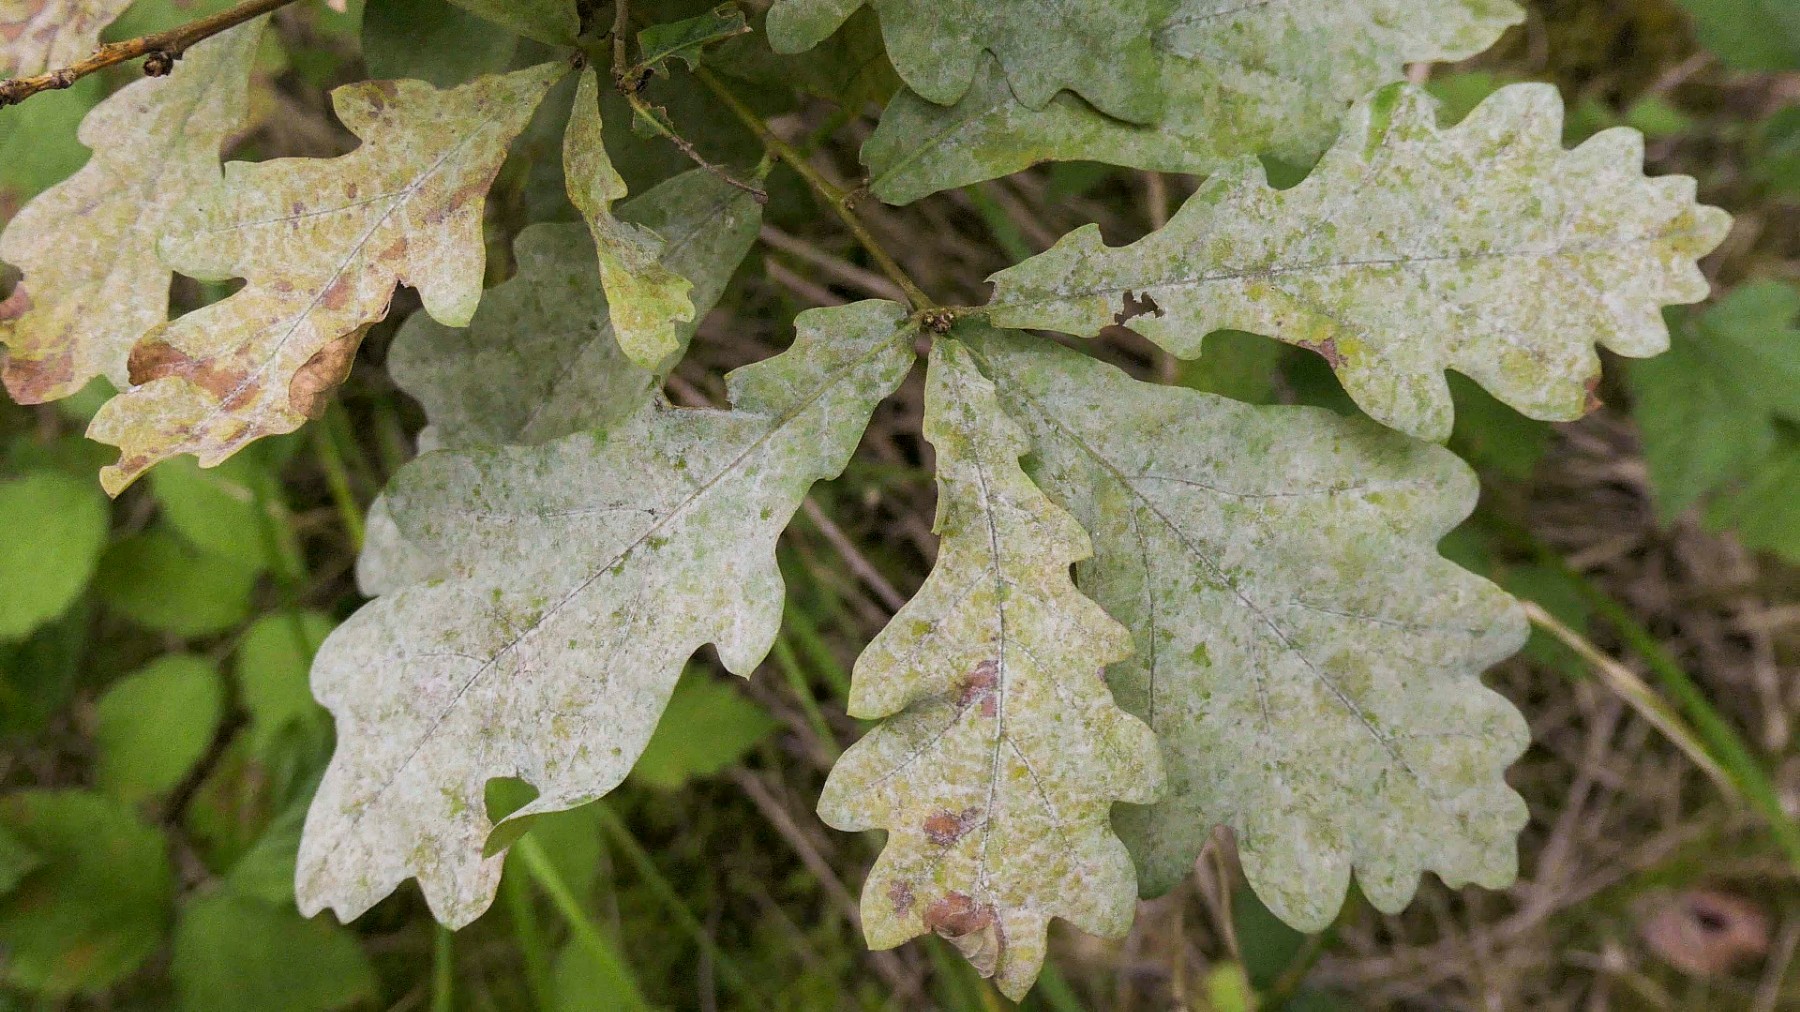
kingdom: Fungi
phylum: Ascomycota
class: Leotiomycetes
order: Helotiales
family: Erysiphaceae
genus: Erysiphe
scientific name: Erysiphe alphitoides
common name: ege-meldug
